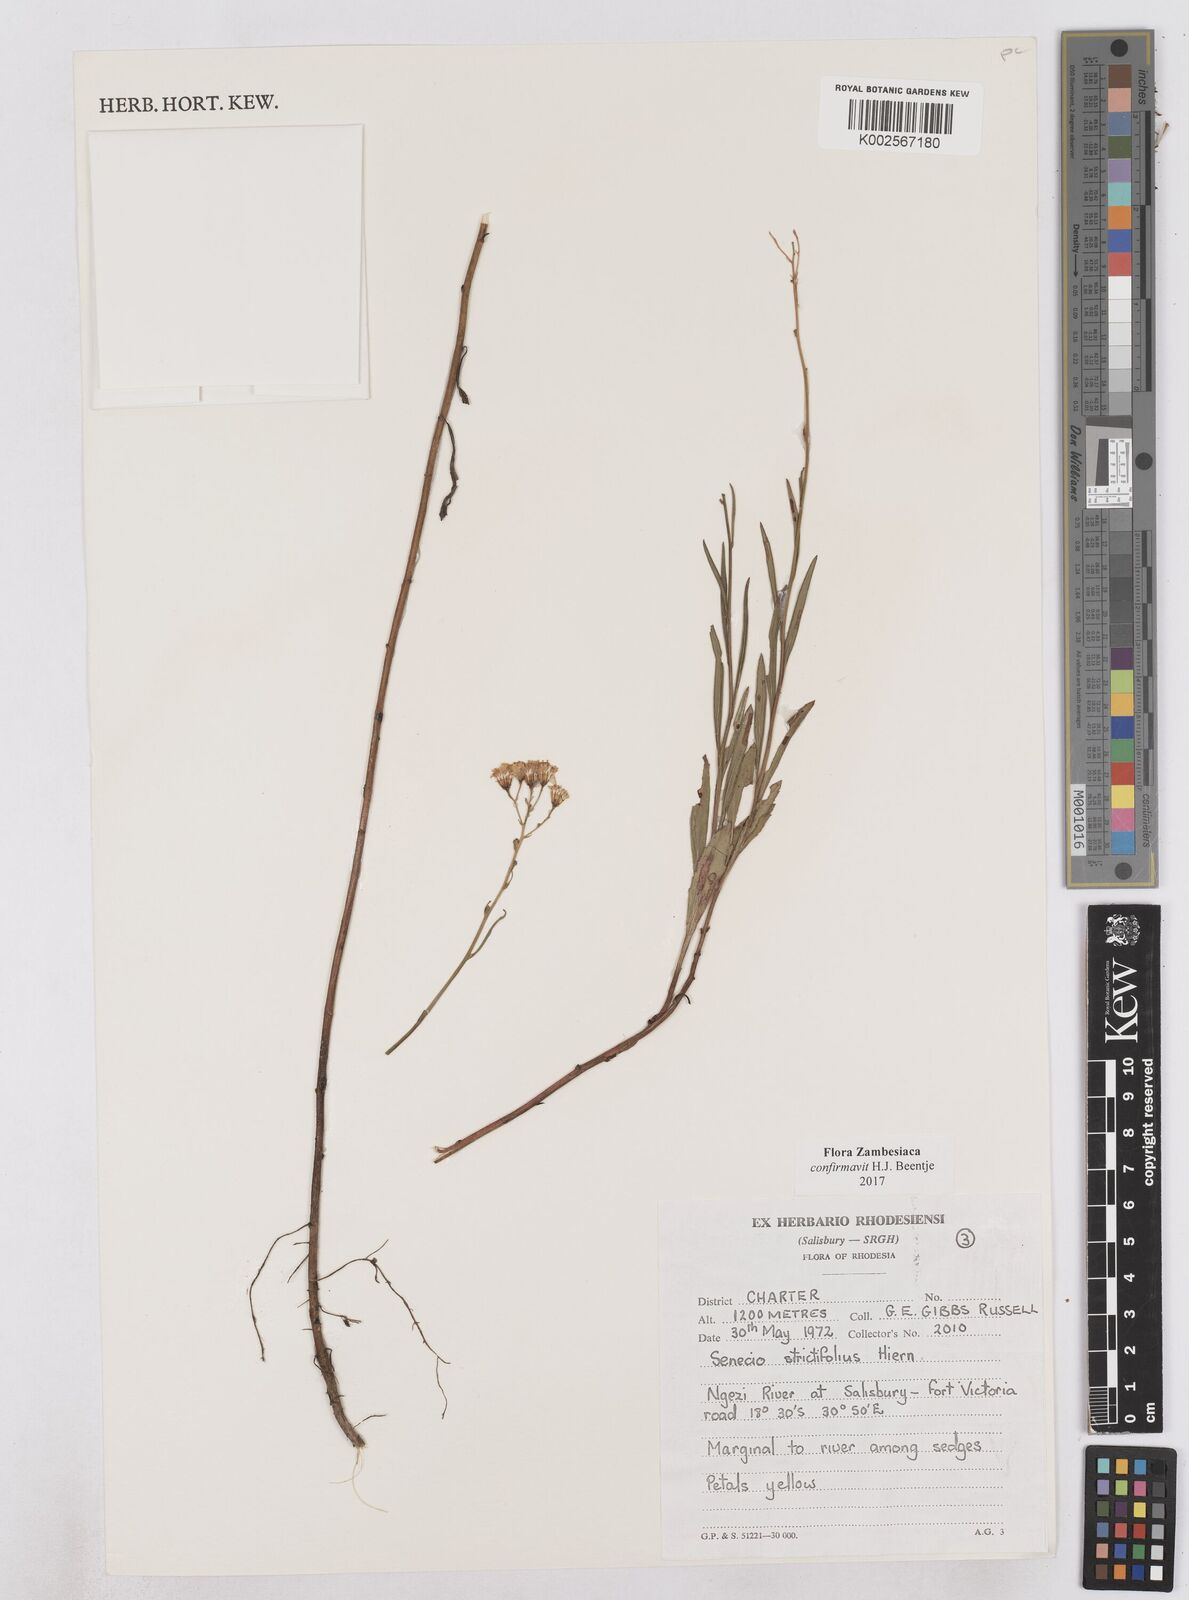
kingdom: Plantae
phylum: Tracheophyta
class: Magnoliopsida
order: Asterales
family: Asteraceae
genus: Senecio
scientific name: Senecio strictifolius
